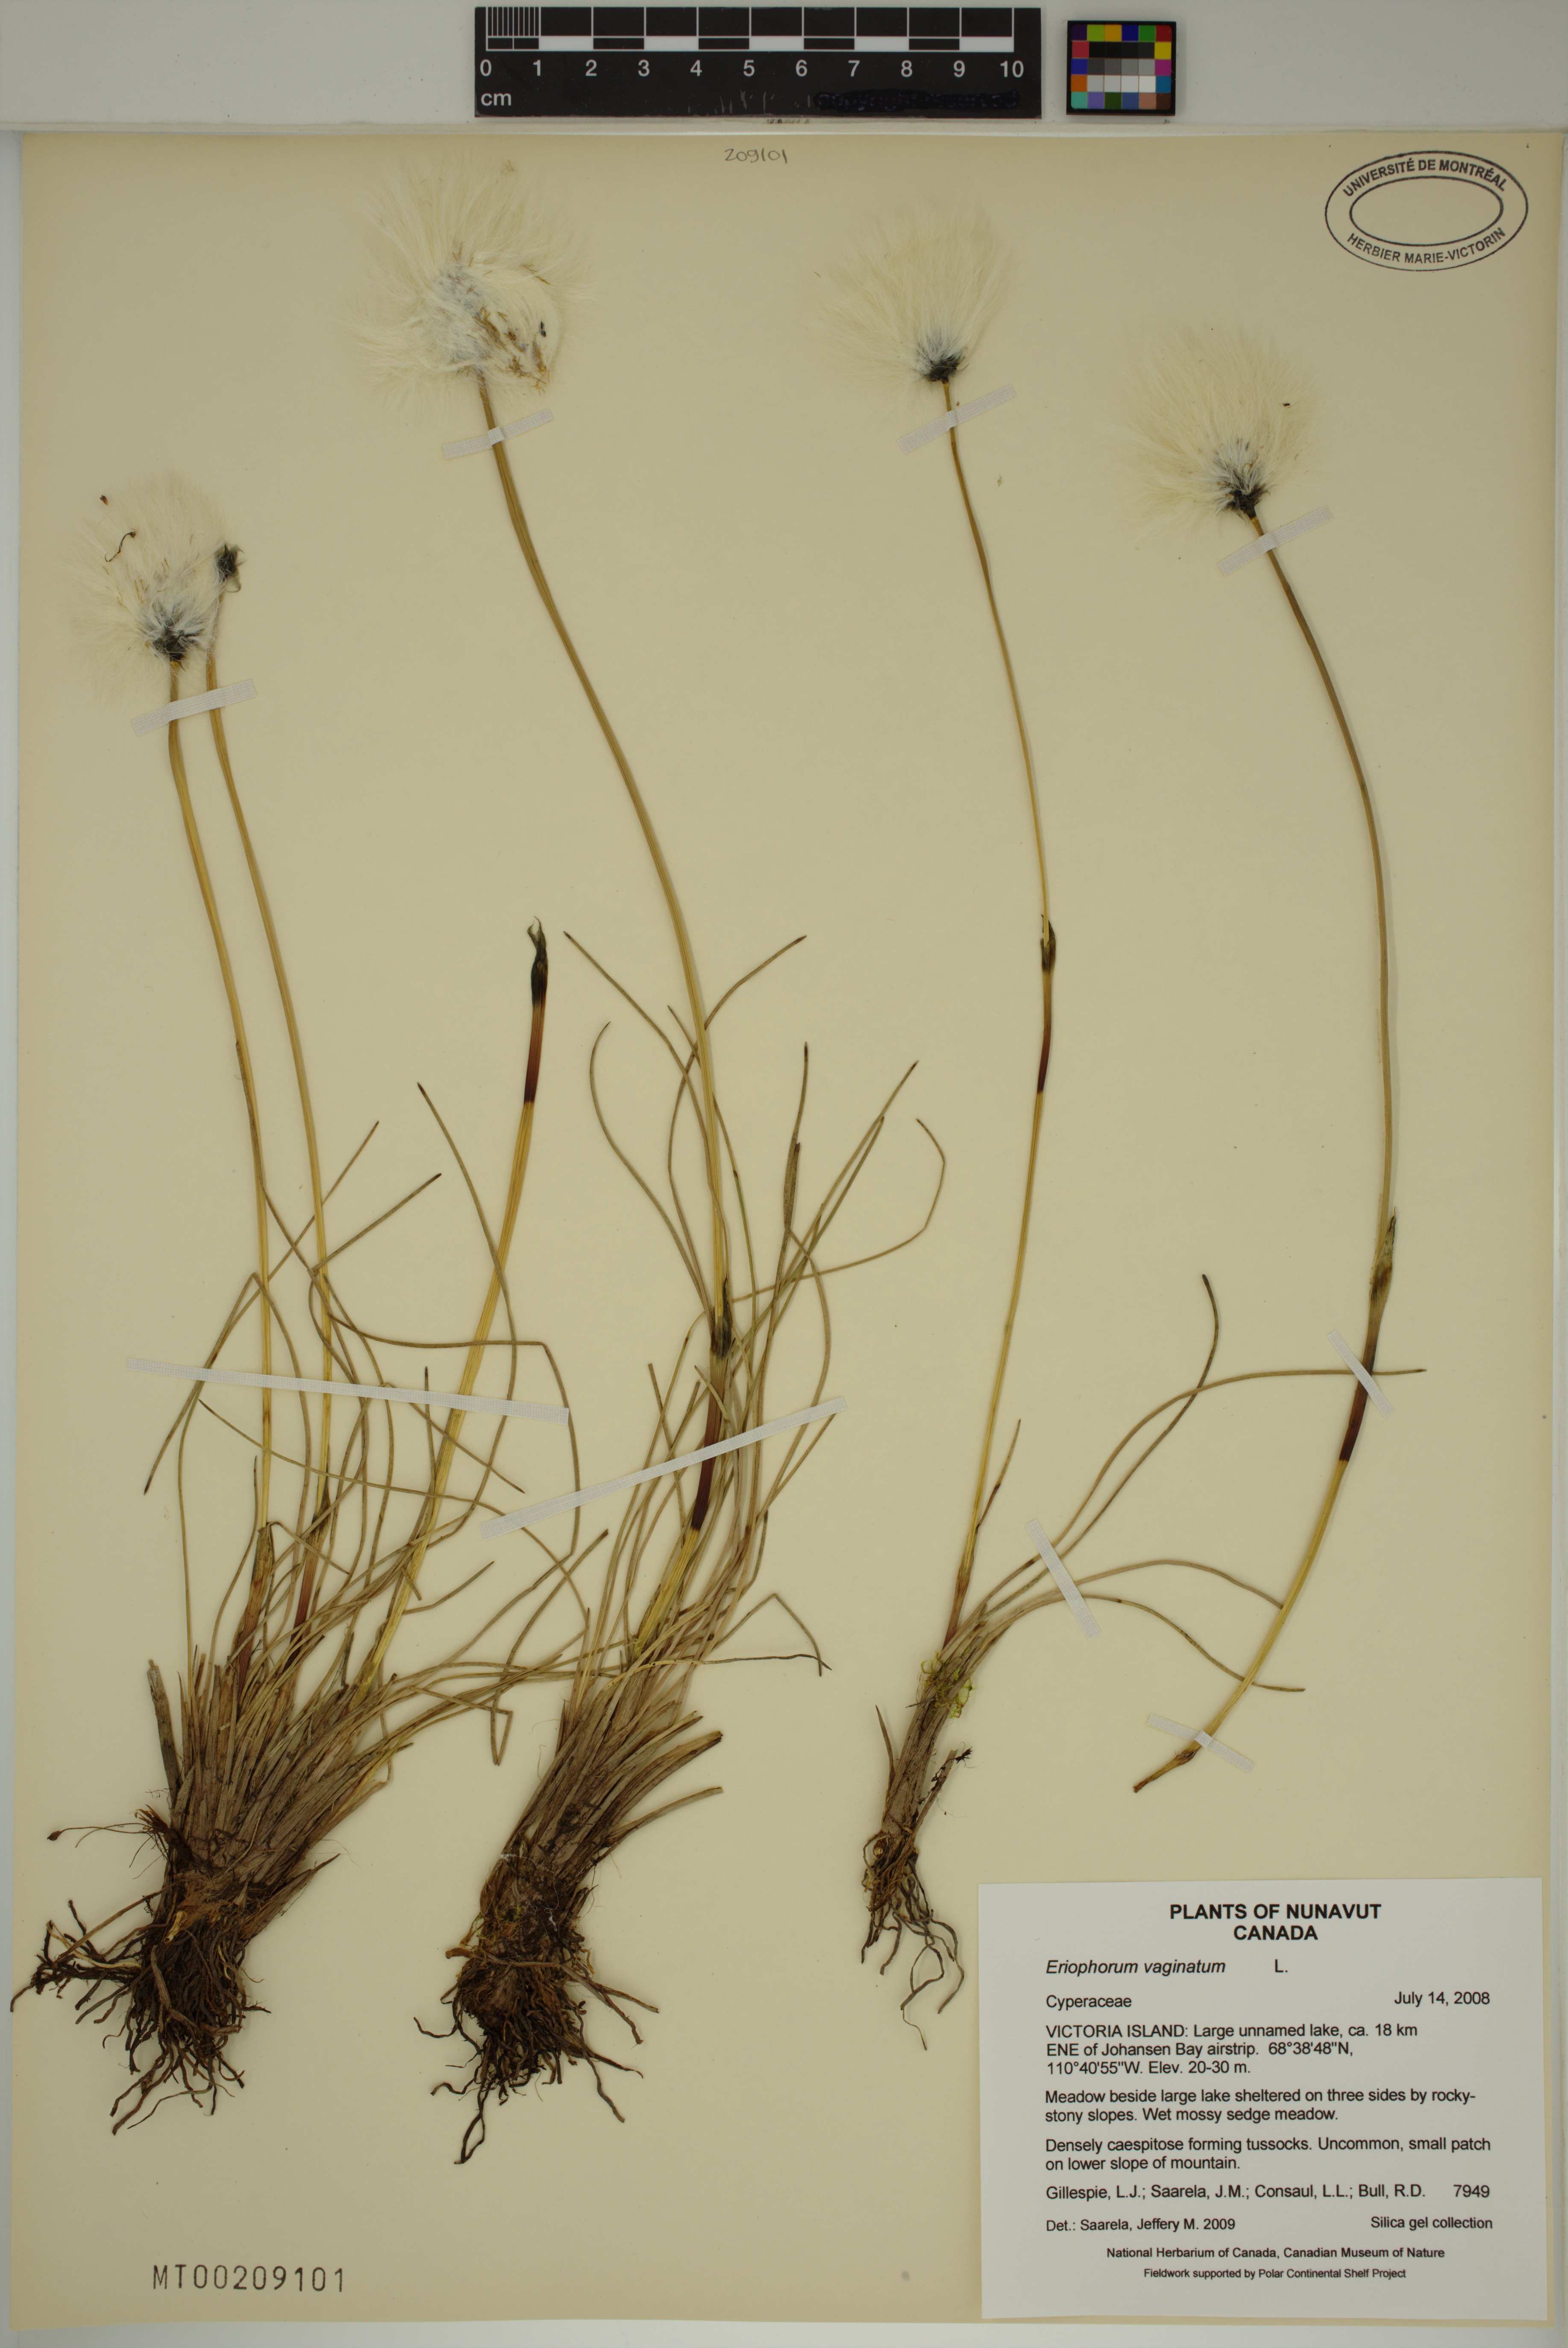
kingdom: Plantae
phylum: Tracheophyta
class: Liliopsida
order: Poales
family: Cyperaceae
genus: Eriophorum
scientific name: Eriophorum vaginatum
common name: Hare's-tail cottongrass
